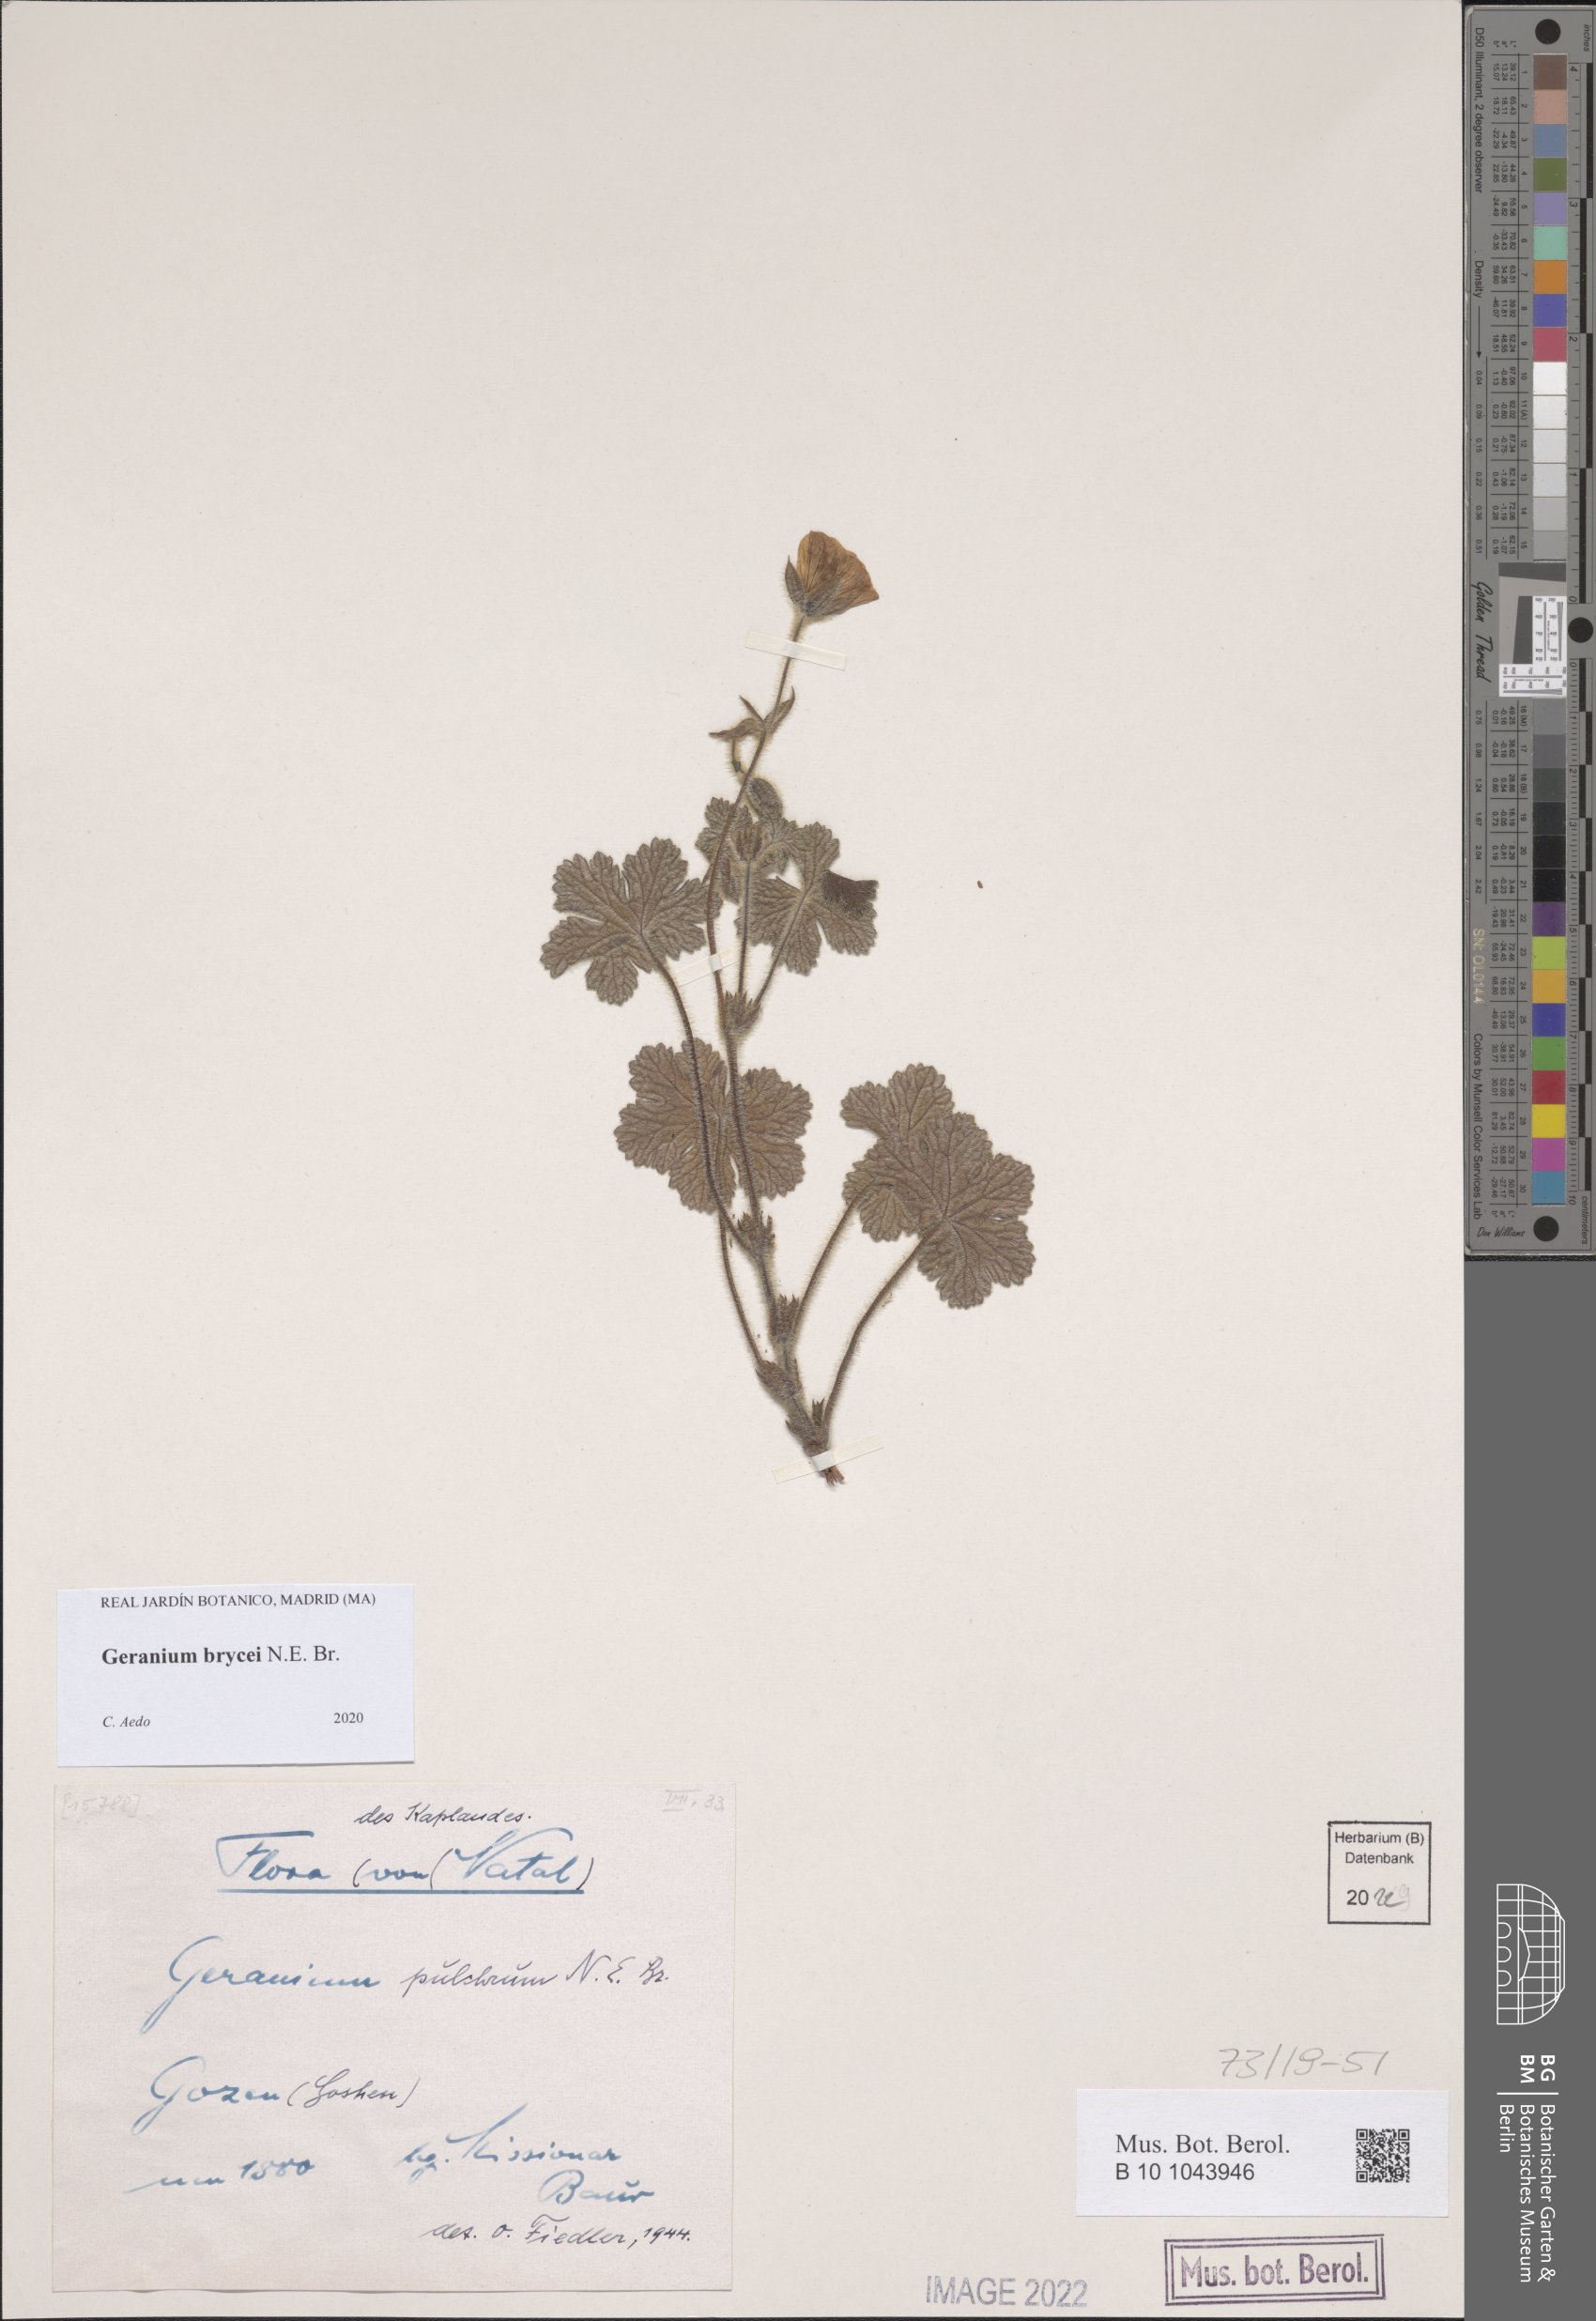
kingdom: Plantae
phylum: Tracheophyta
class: Magnoliopsida
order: Geraniales
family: Geraniaceae
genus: Geranium
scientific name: Geranium brycei
